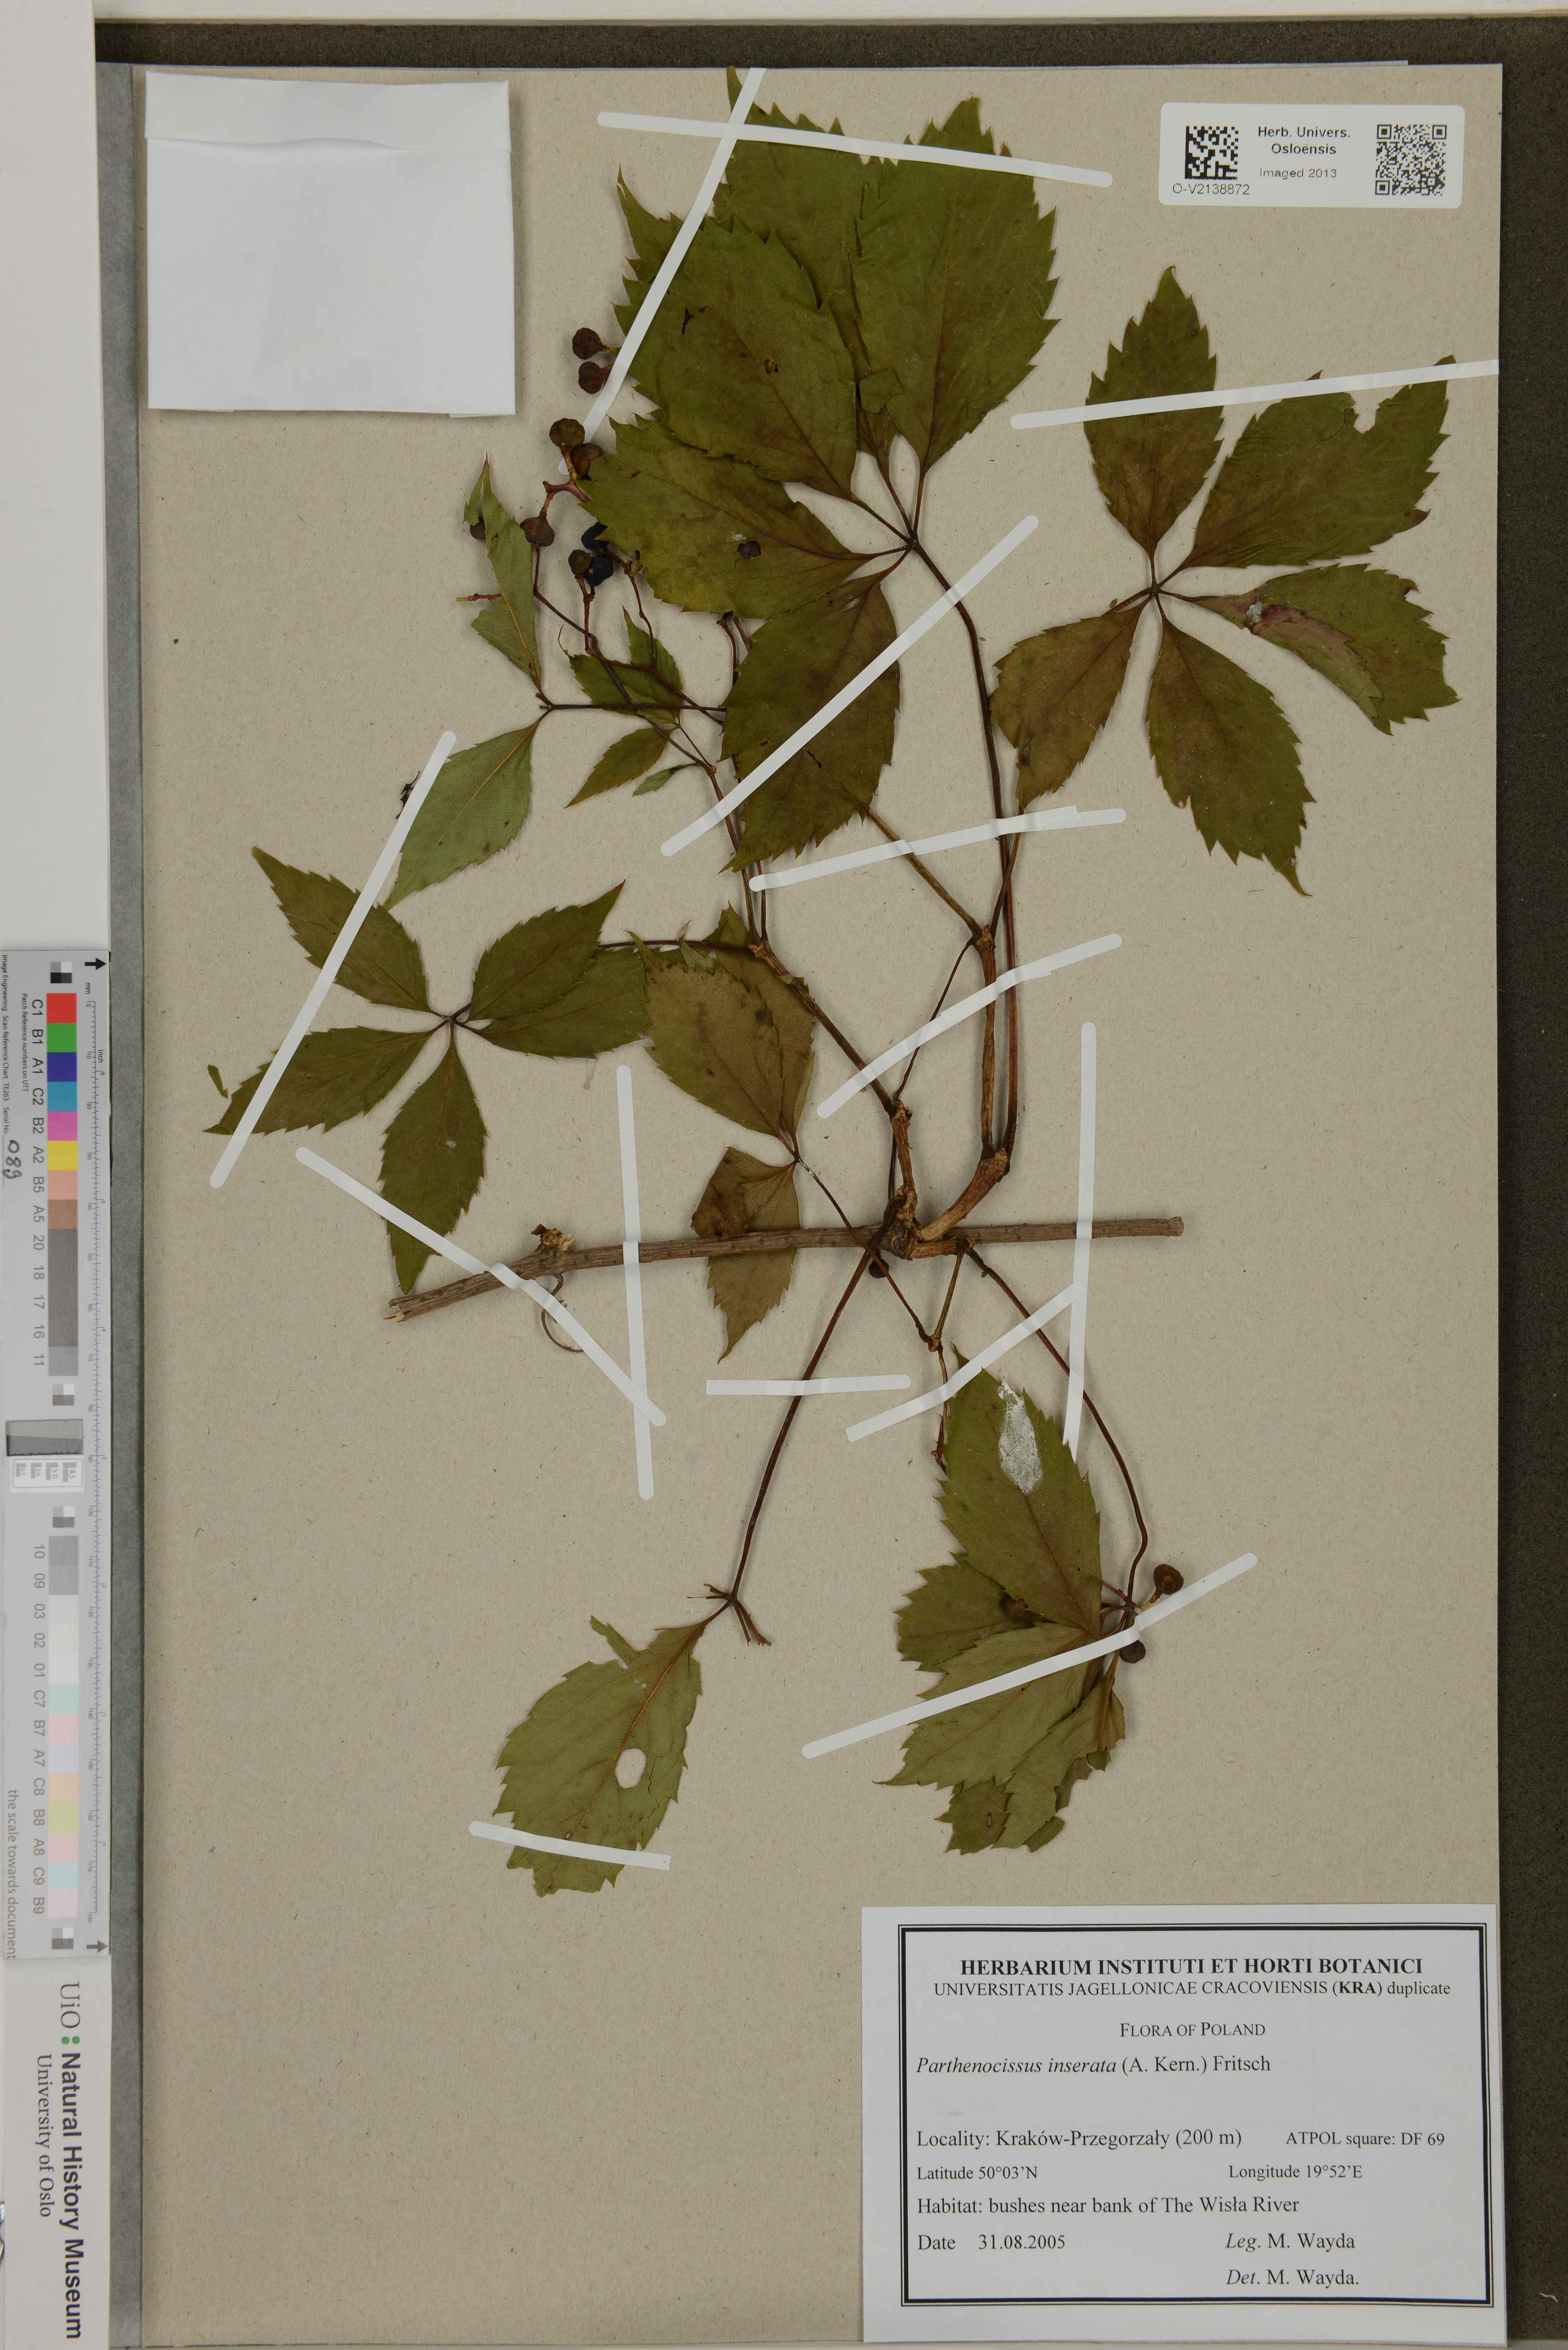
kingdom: Plantae
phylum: Tracheophyta
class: Magnoliopsida
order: Vitales
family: Vitaceae
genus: Parthenocissus
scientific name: Parthenocissus inserta
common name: False virginia-creeper
